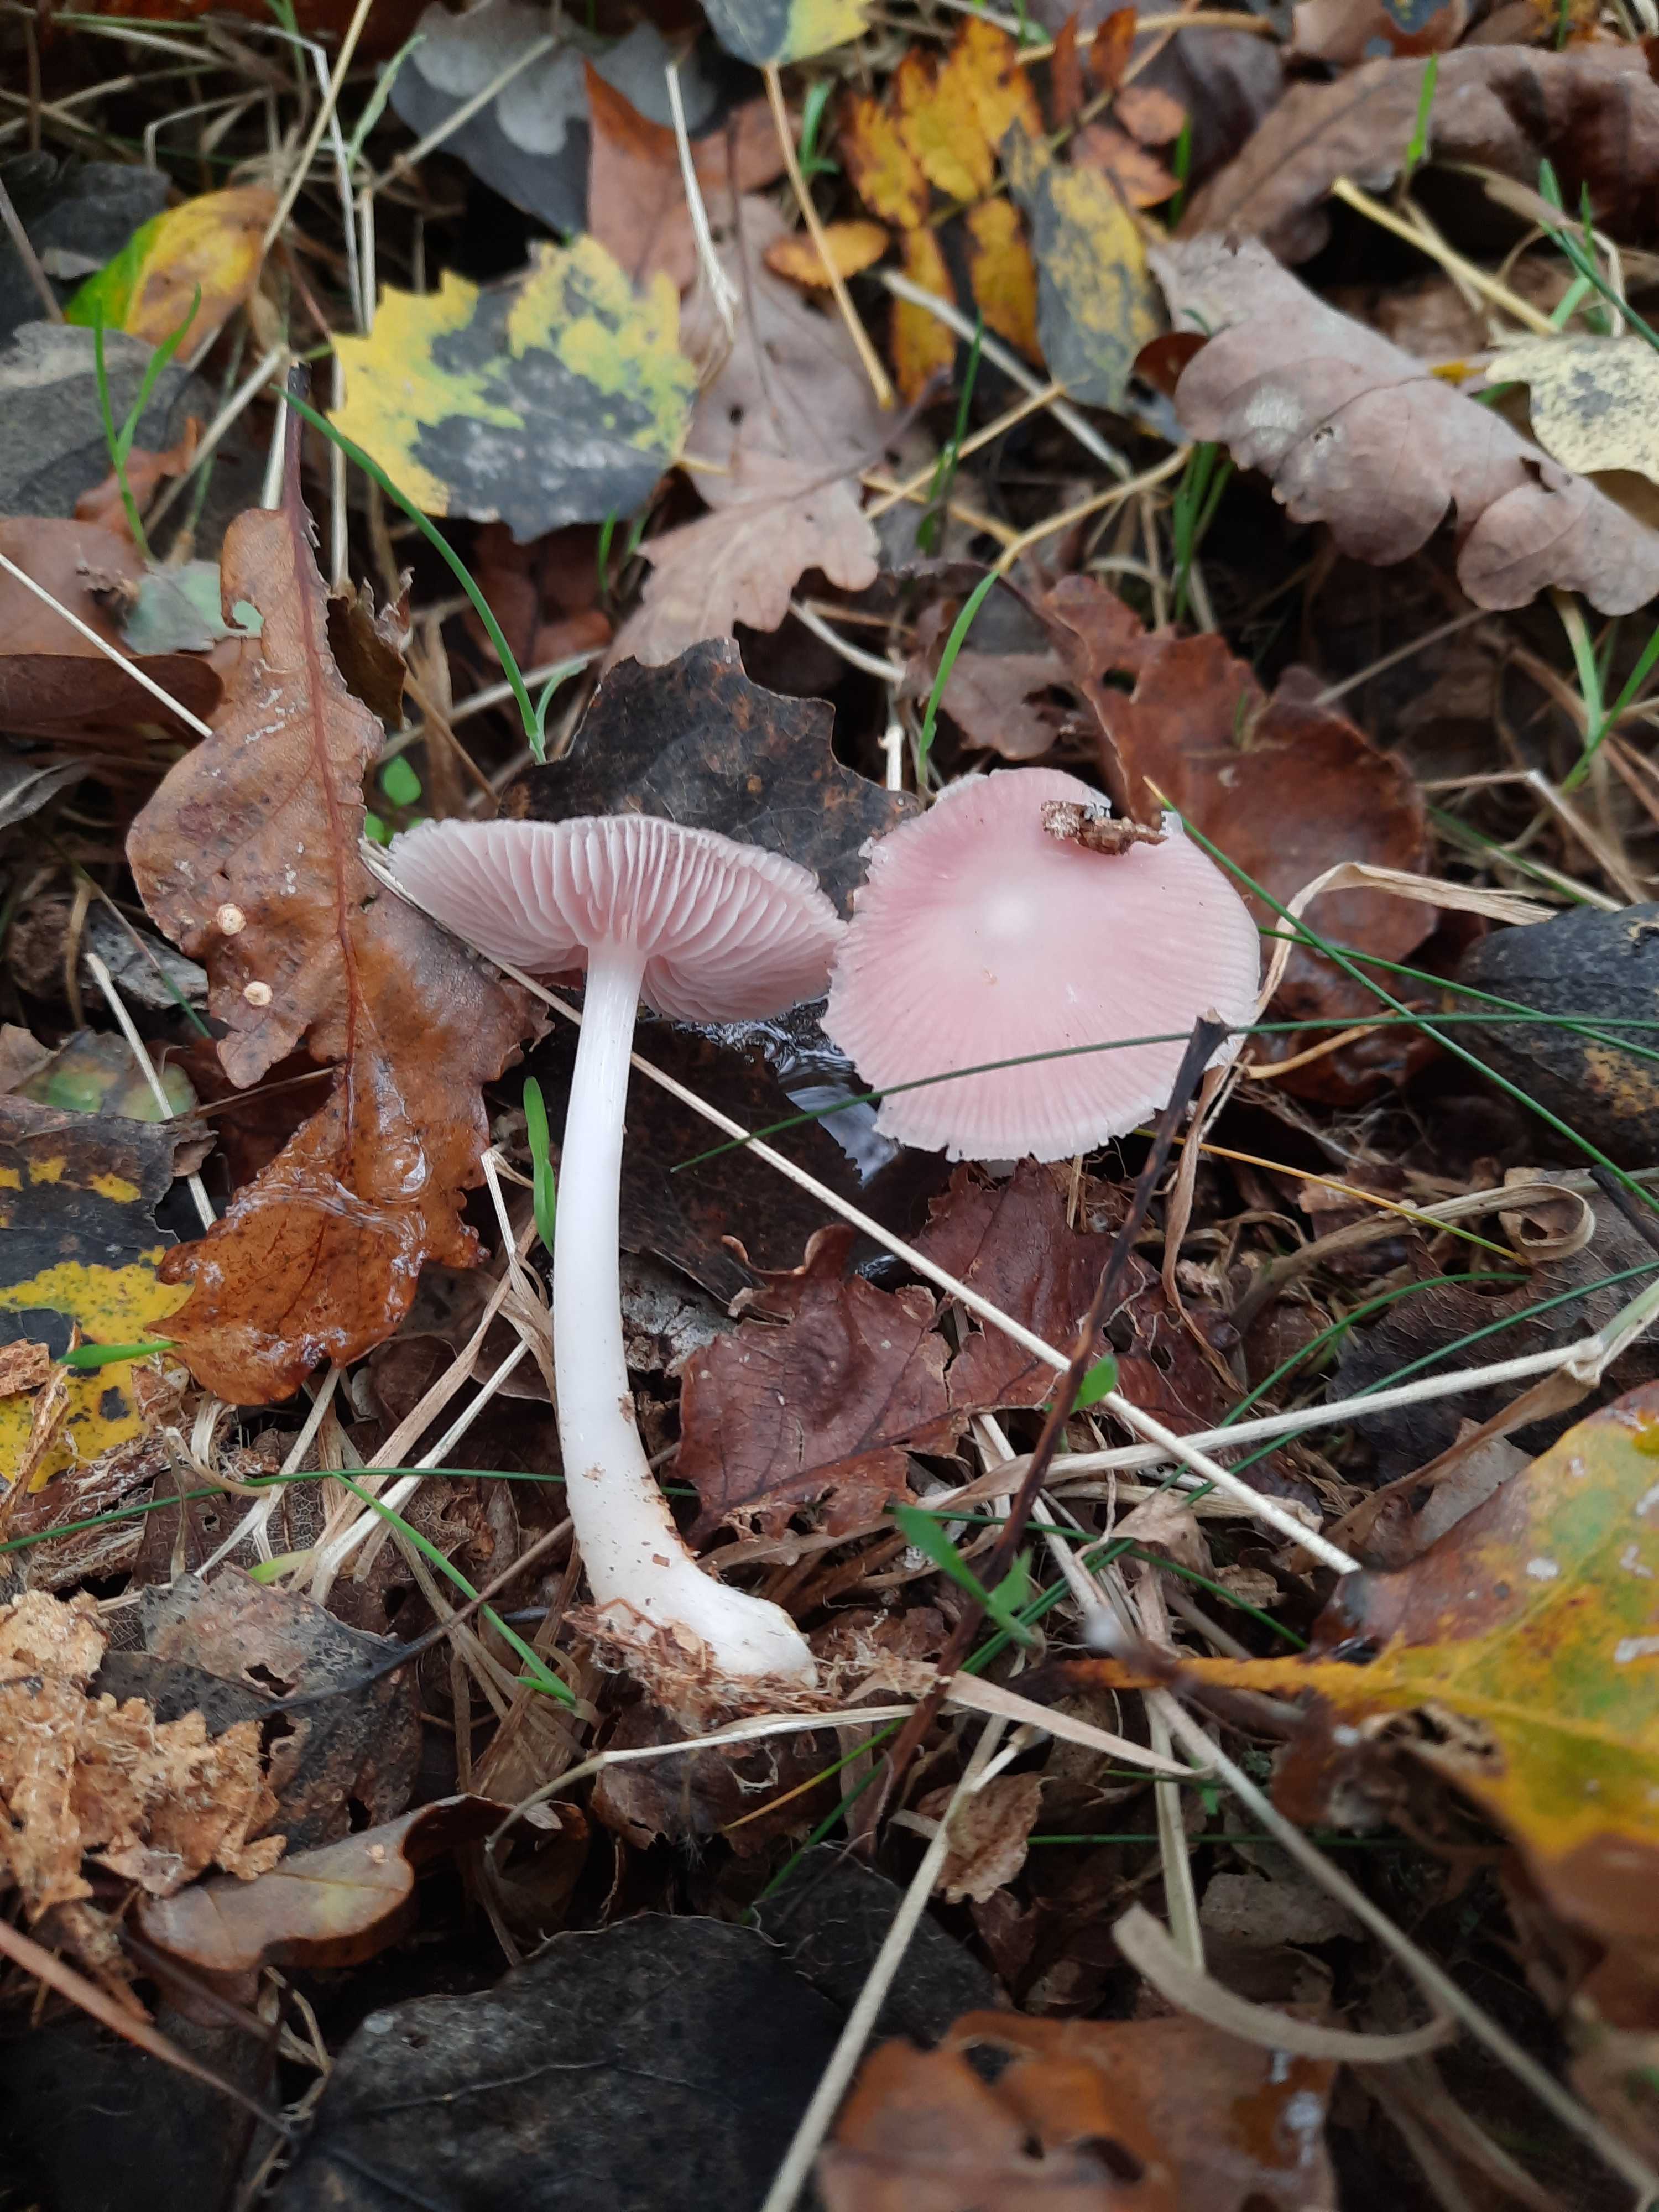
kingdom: Fungi
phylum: Basidiomycota
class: Agaricomycetes
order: Agaricales
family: Mycenaceae
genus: Mycena
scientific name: Mycena rosea
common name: rosa huesvamp
